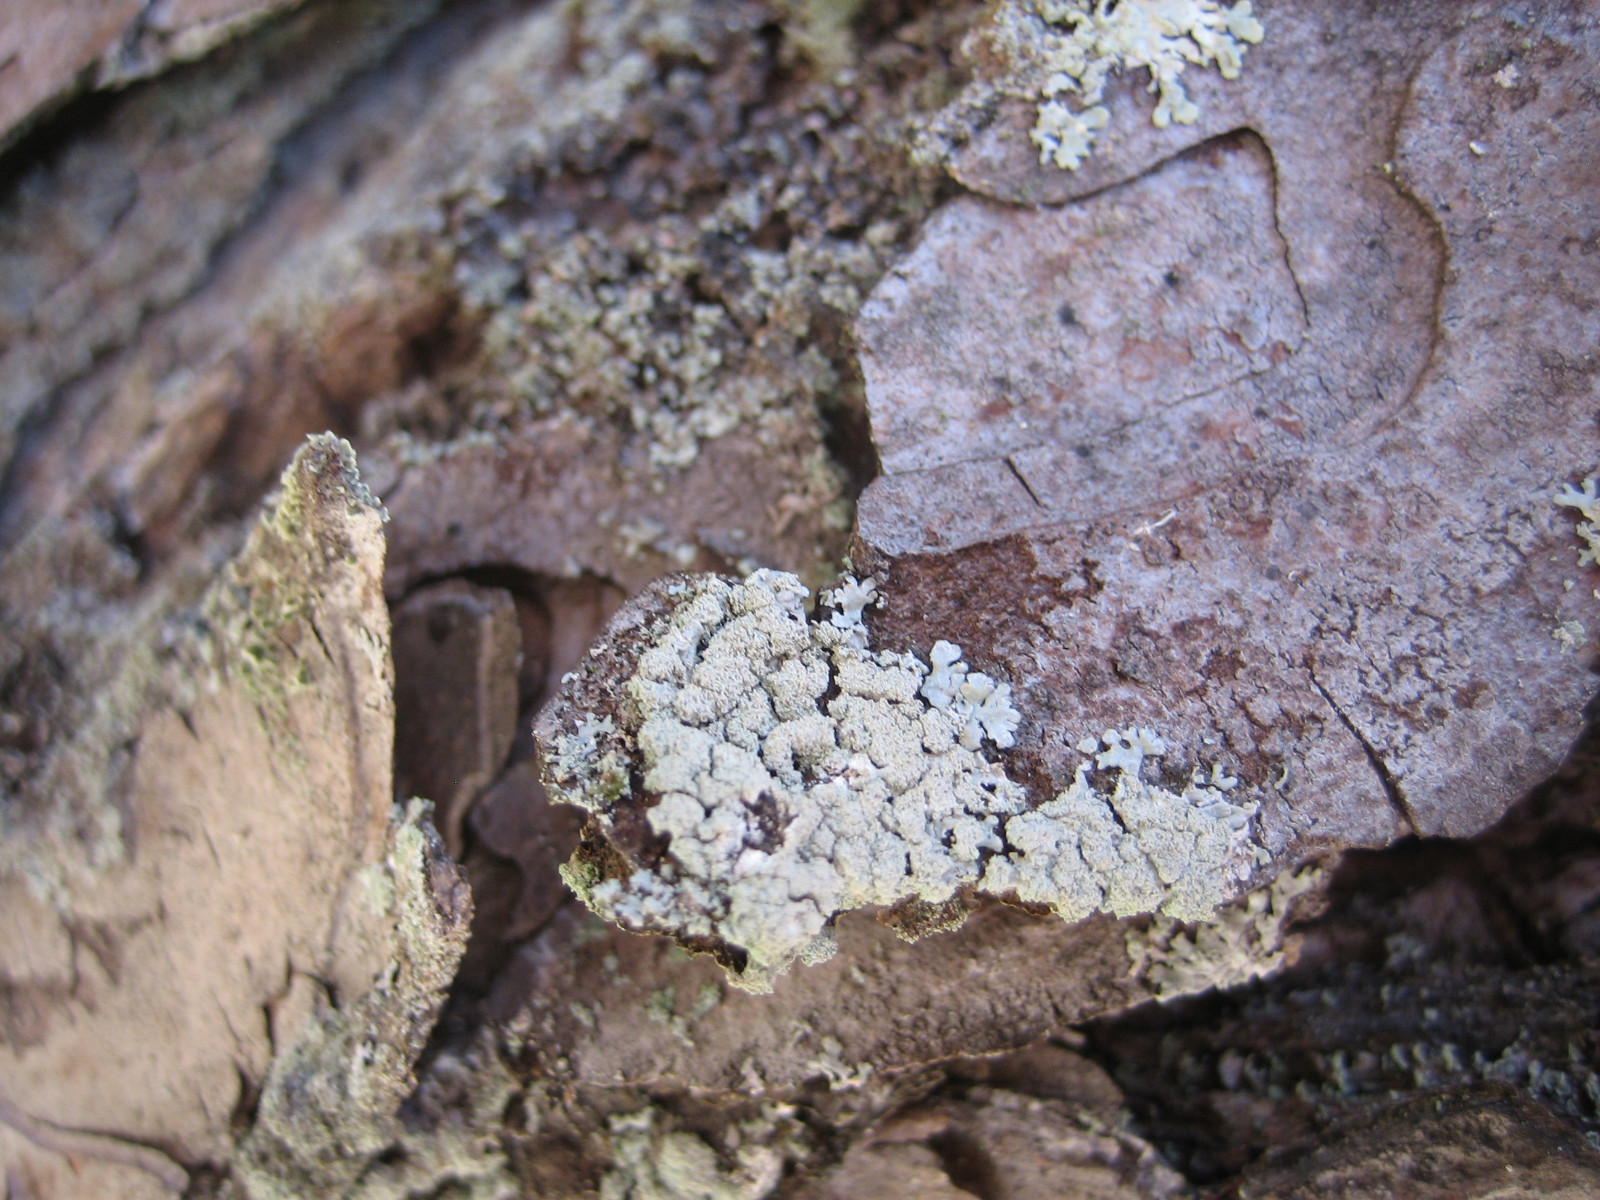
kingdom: Fungi
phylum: Ascomycota
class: Lecanoromycetes
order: Lecanorales
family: Parmeliaceae
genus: Parmeliopsis
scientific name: Parmeliopsis hyperopta
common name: grå stolpelav
